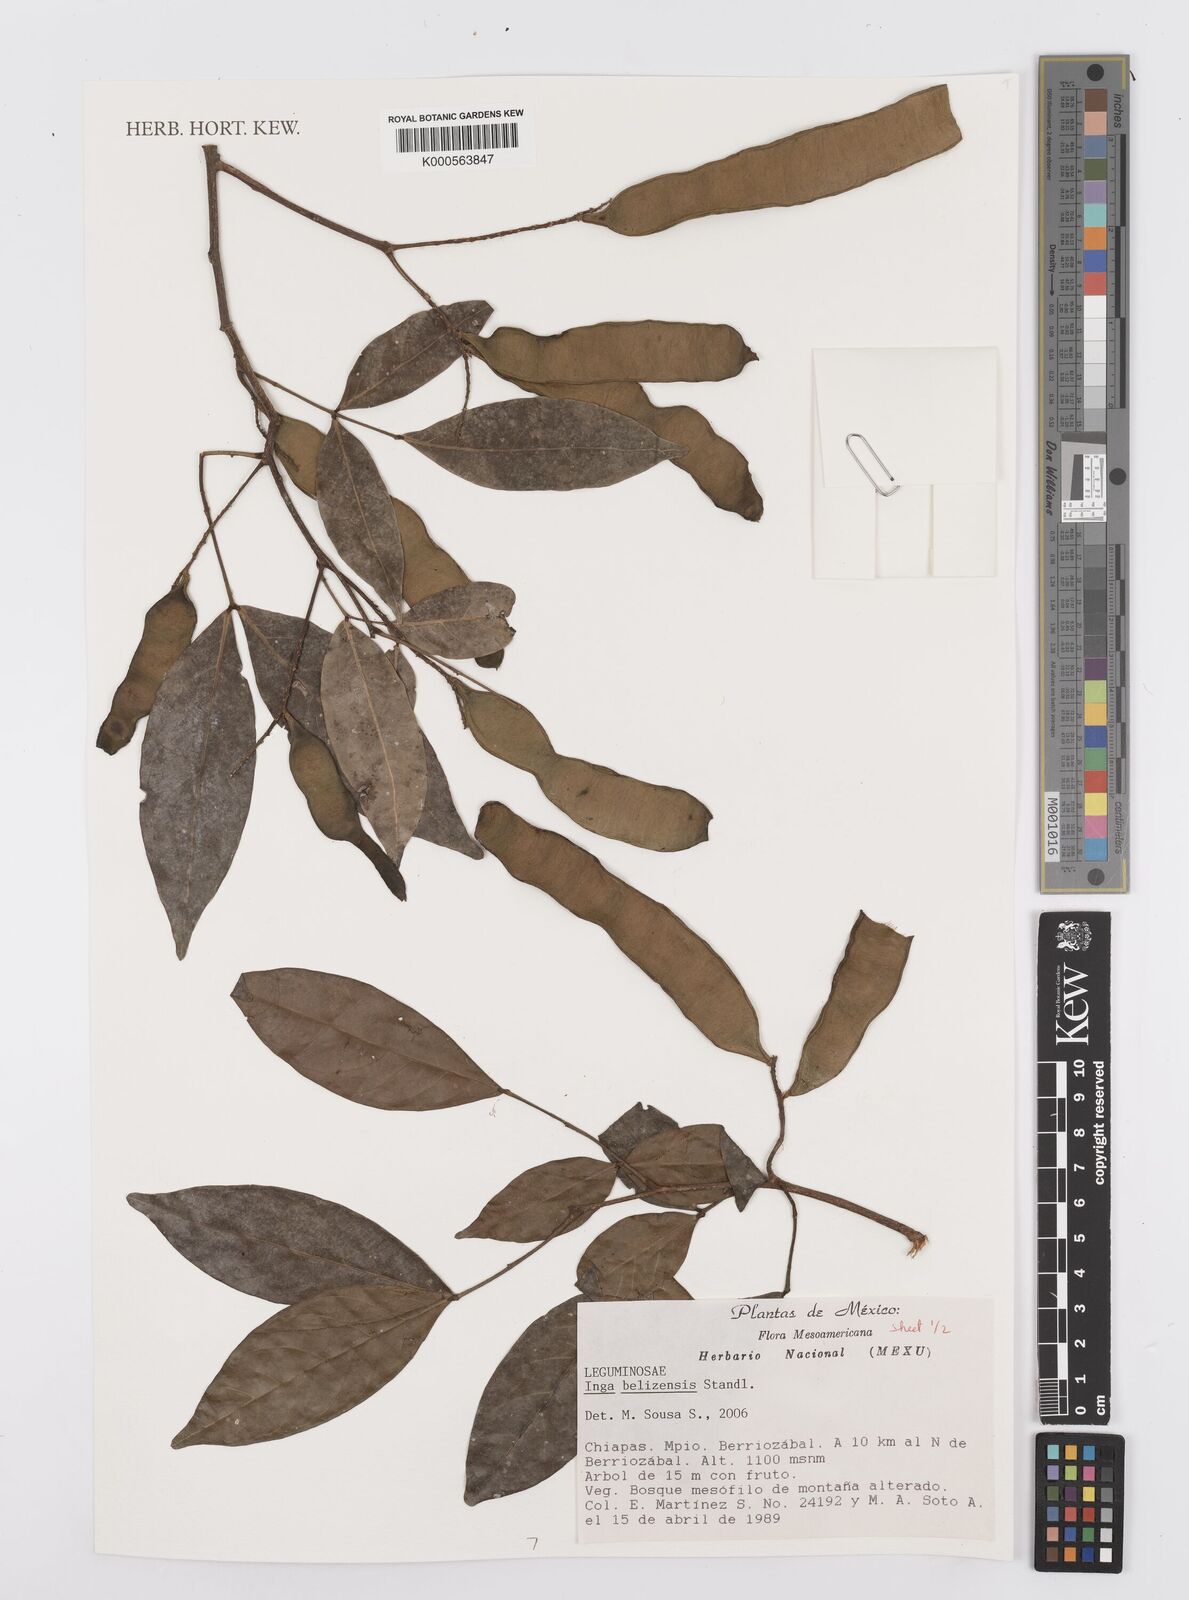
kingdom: Plantae
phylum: Tracheophyta
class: Magnoliopsida
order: Fabales
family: Fabaceae
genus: Inga
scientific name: Inga belizensis
